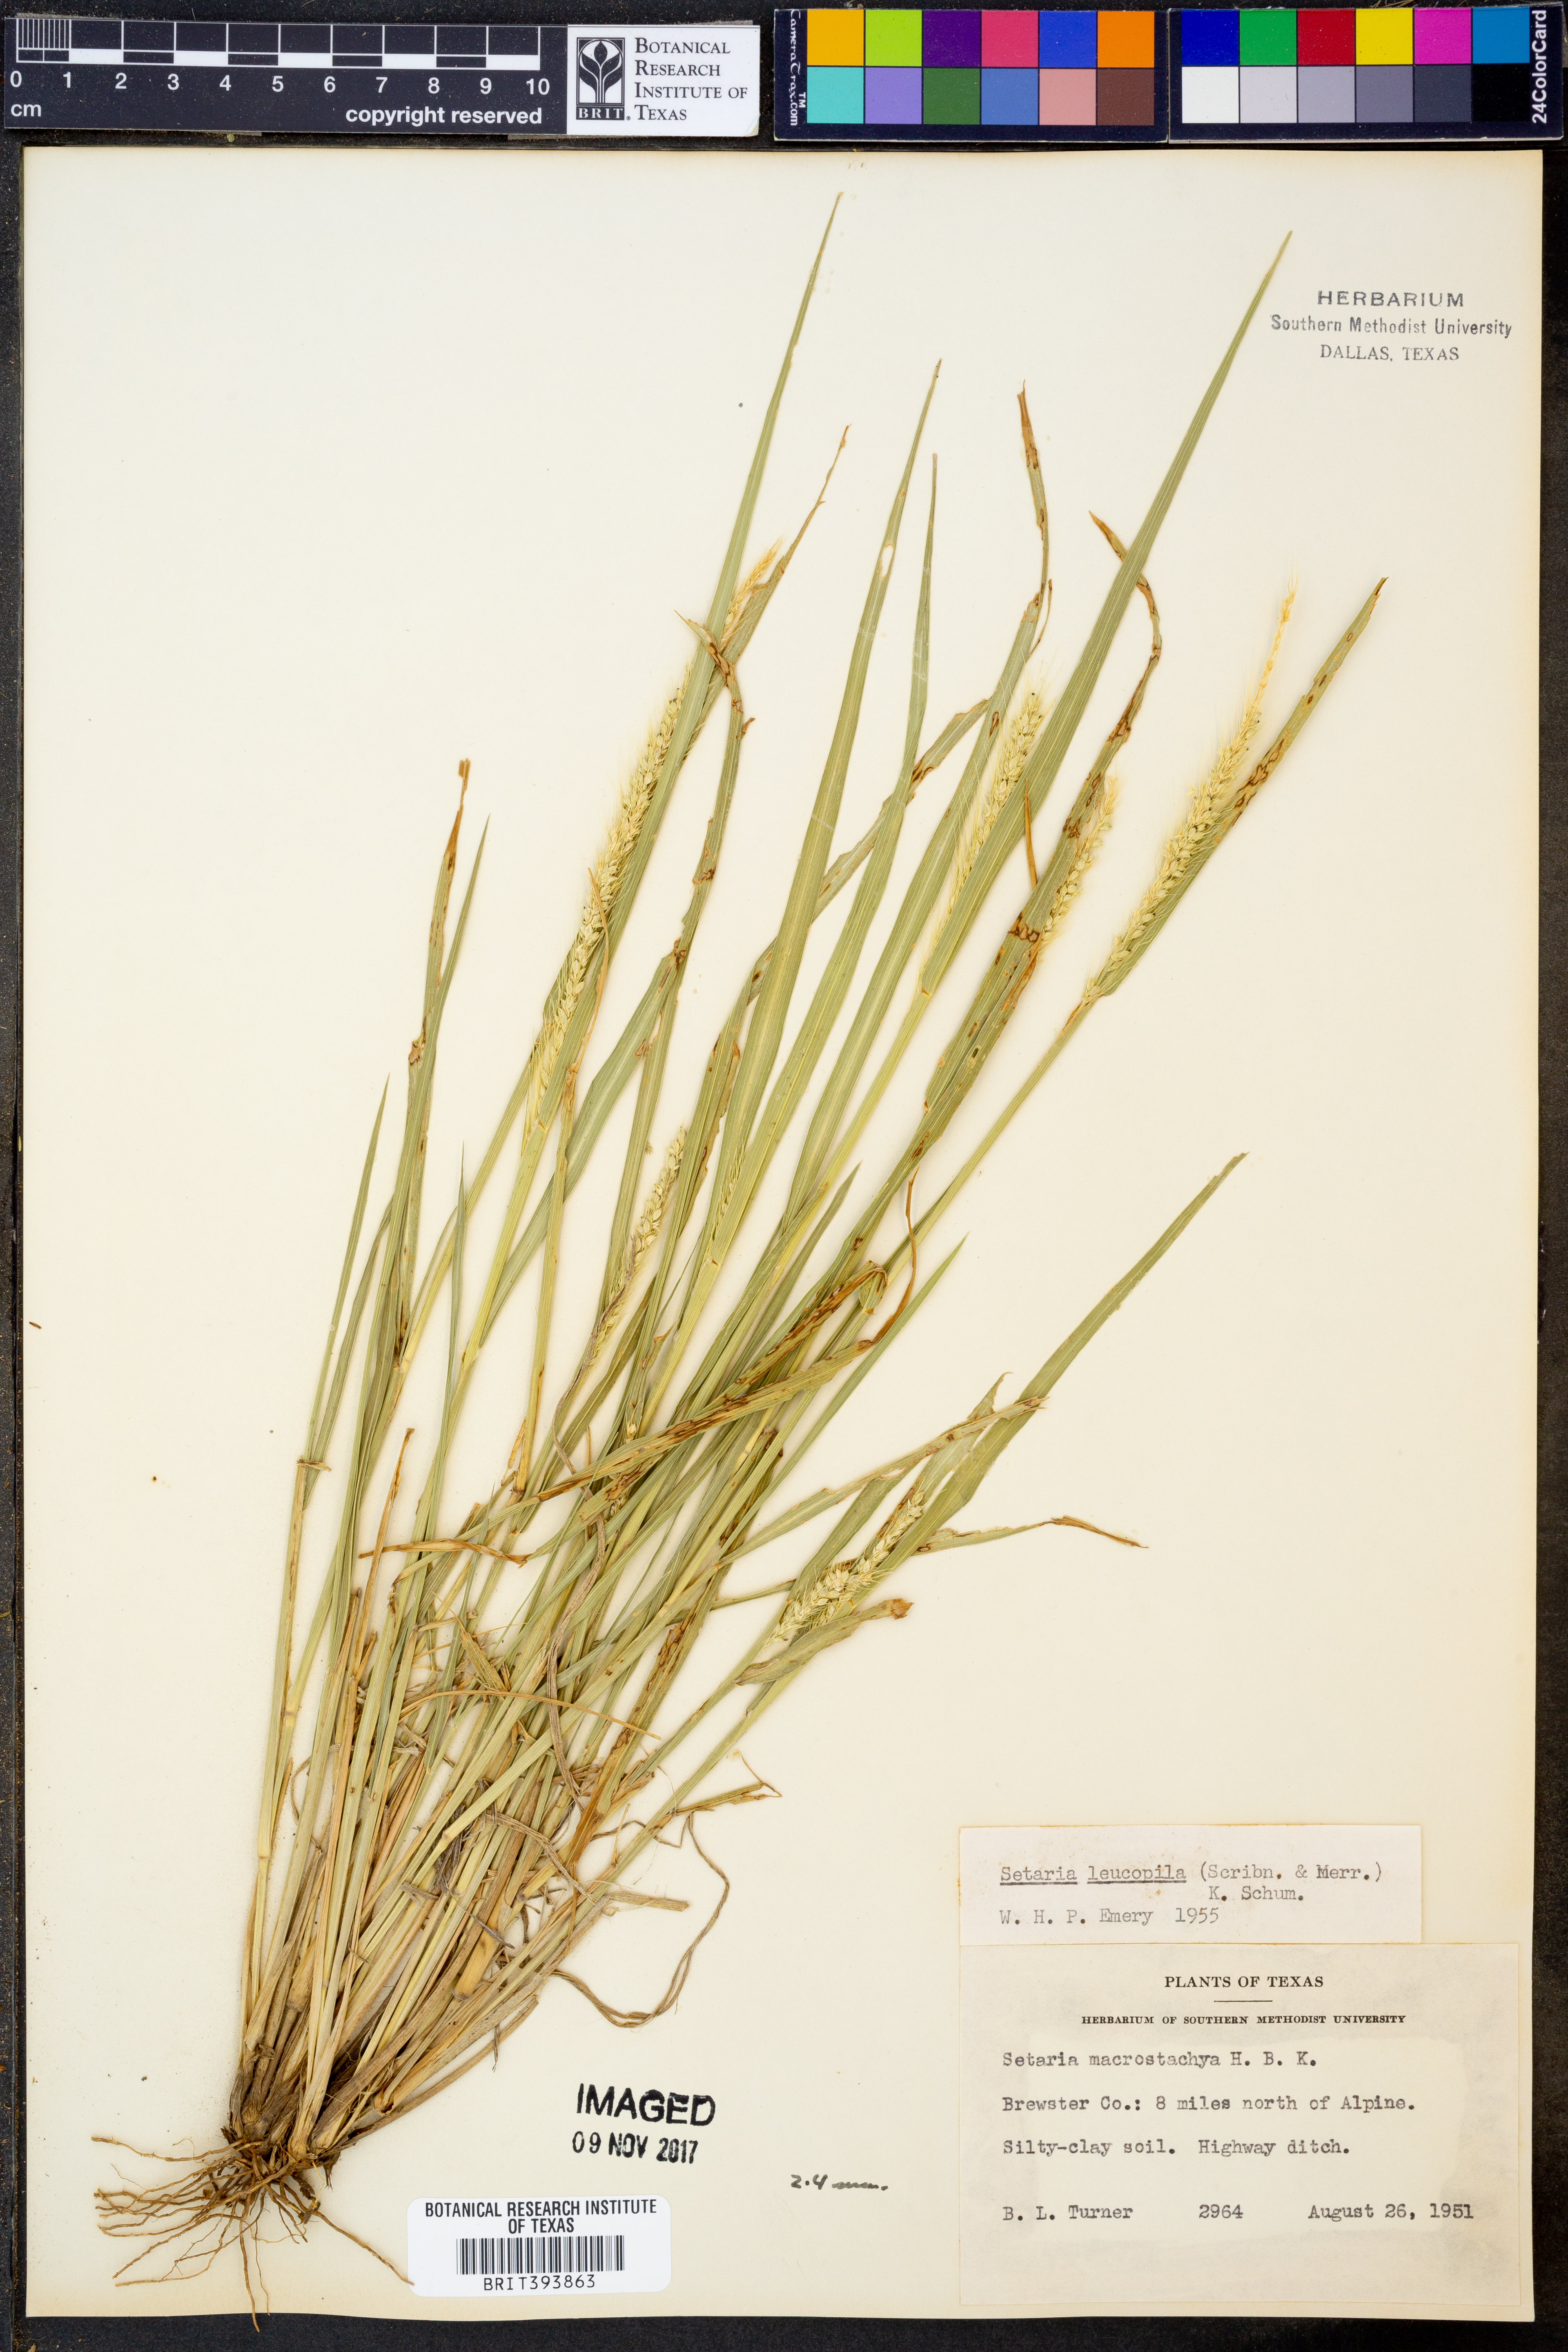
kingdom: Plantae
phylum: Tracheophyta
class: Liliopsida
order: Poales
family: Poaceae
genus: Setaria
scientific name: Setaria leucopila
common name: Plains bristle grass
